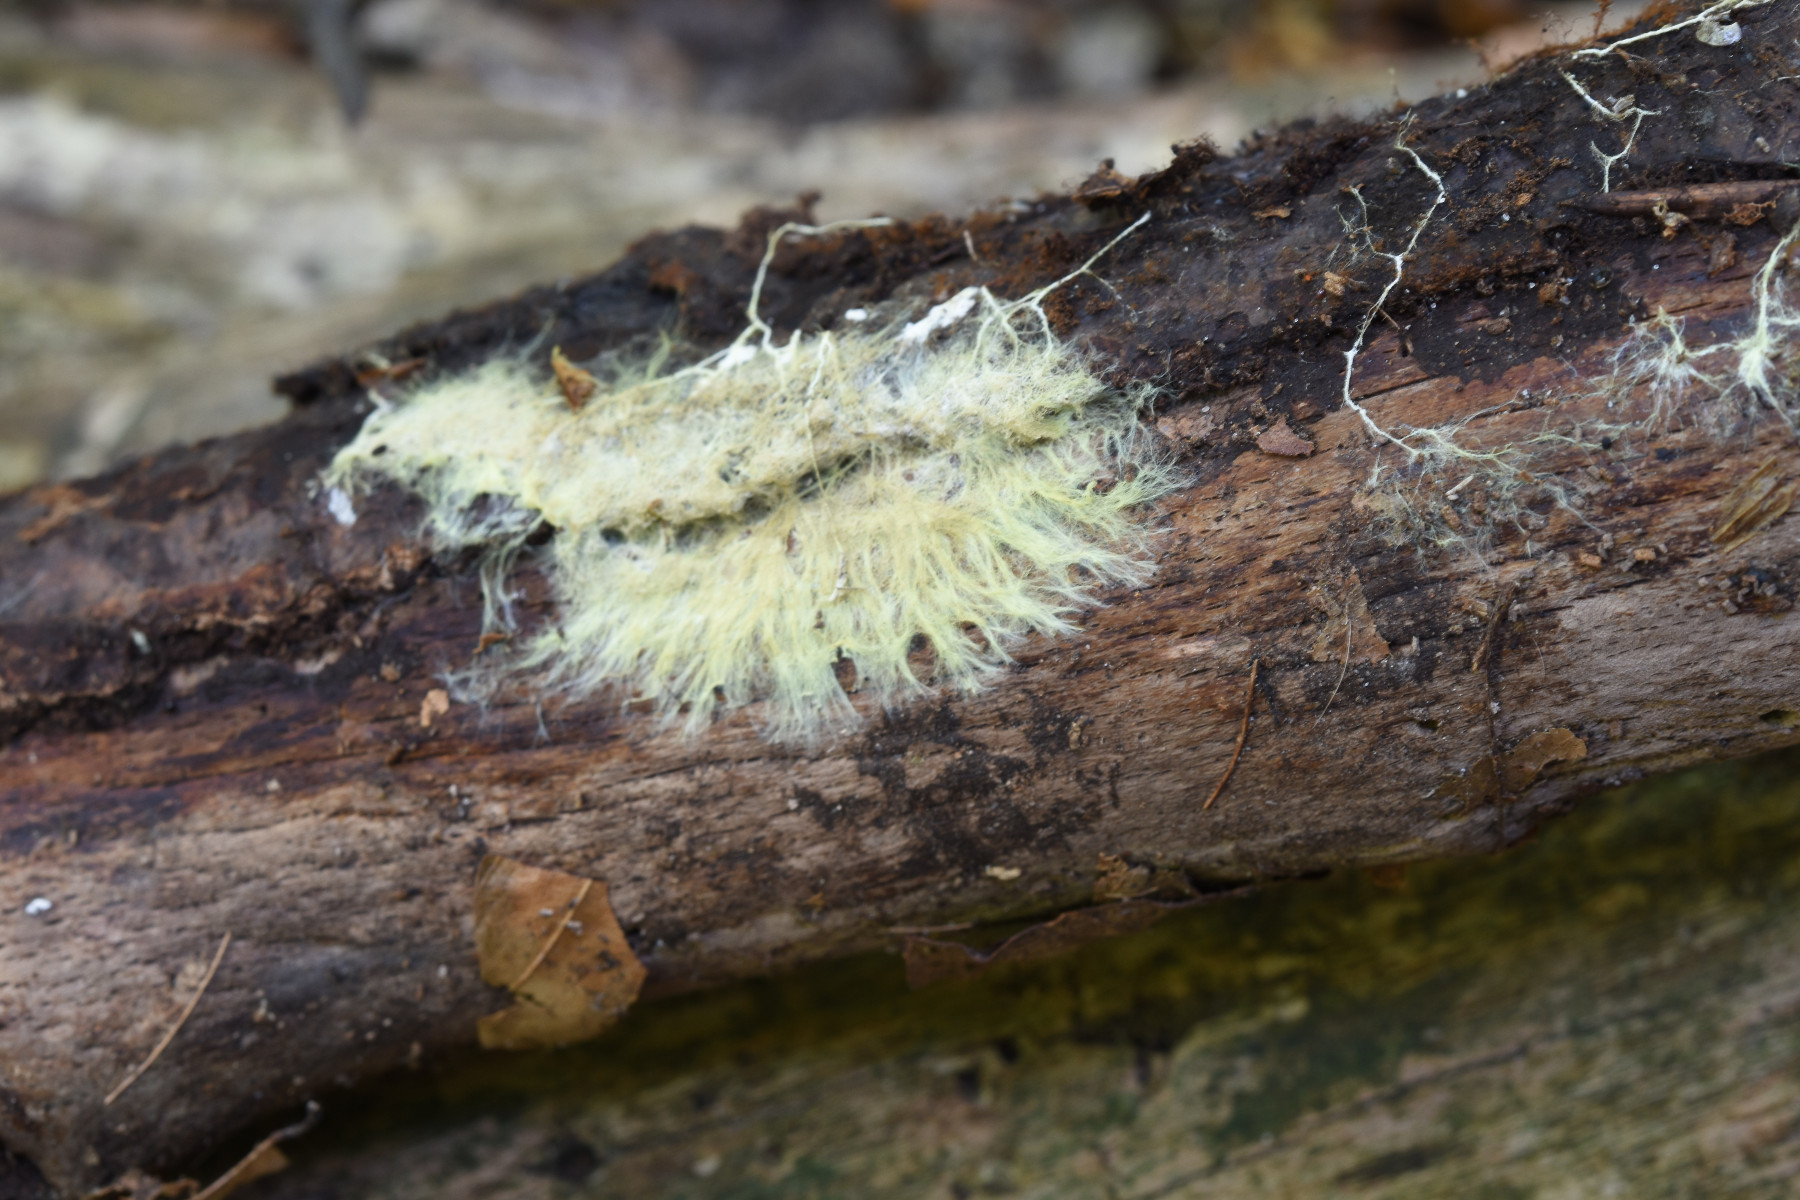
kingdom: Fungi
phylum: Basidiomycota
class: Agaricomycetes
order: Russulales
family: Xenasmataceae
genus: Xenasmatella
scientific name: Xenasmatella vaga
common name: svovl-strenghinde
